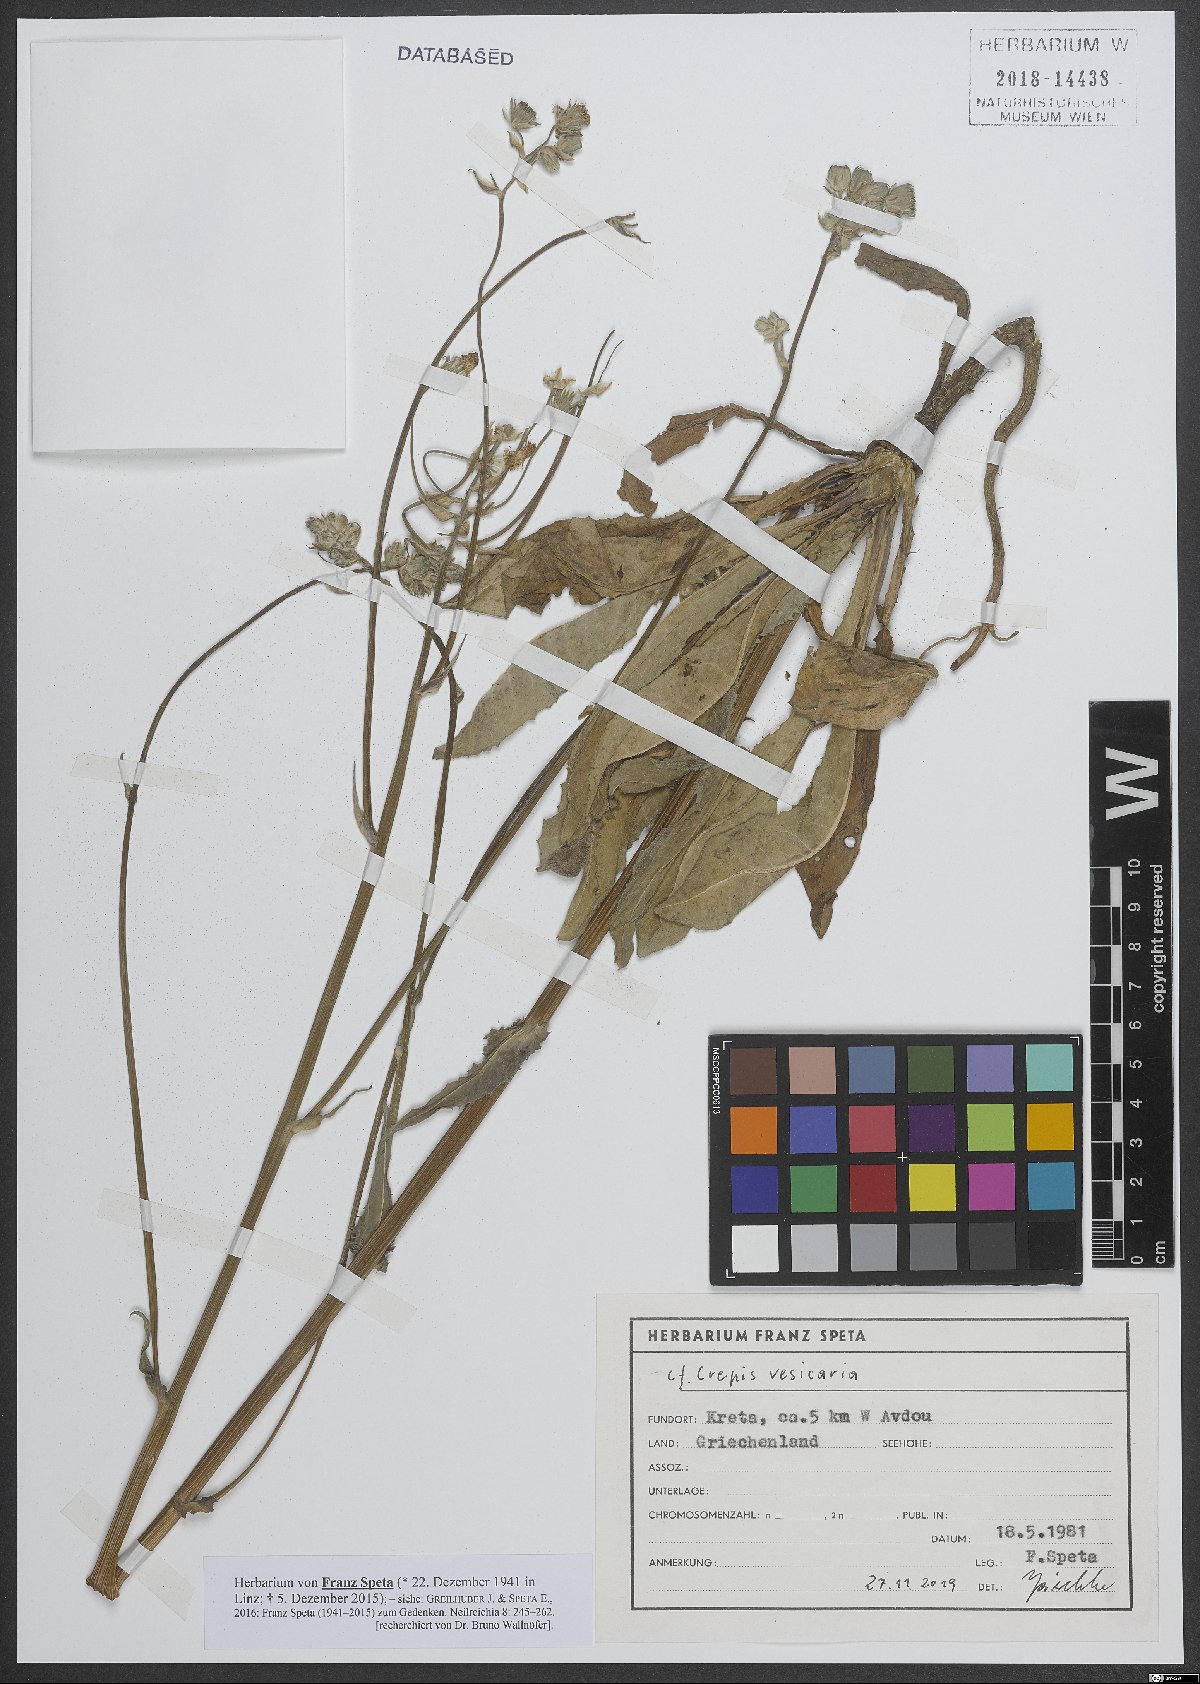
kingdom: Plantae
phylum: Tracheophyta
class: Magnoliopsida
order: Asterales
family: Asteraceae
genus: Crepis
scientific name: Crepis vesicaria
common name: Beaked hawksbeard
